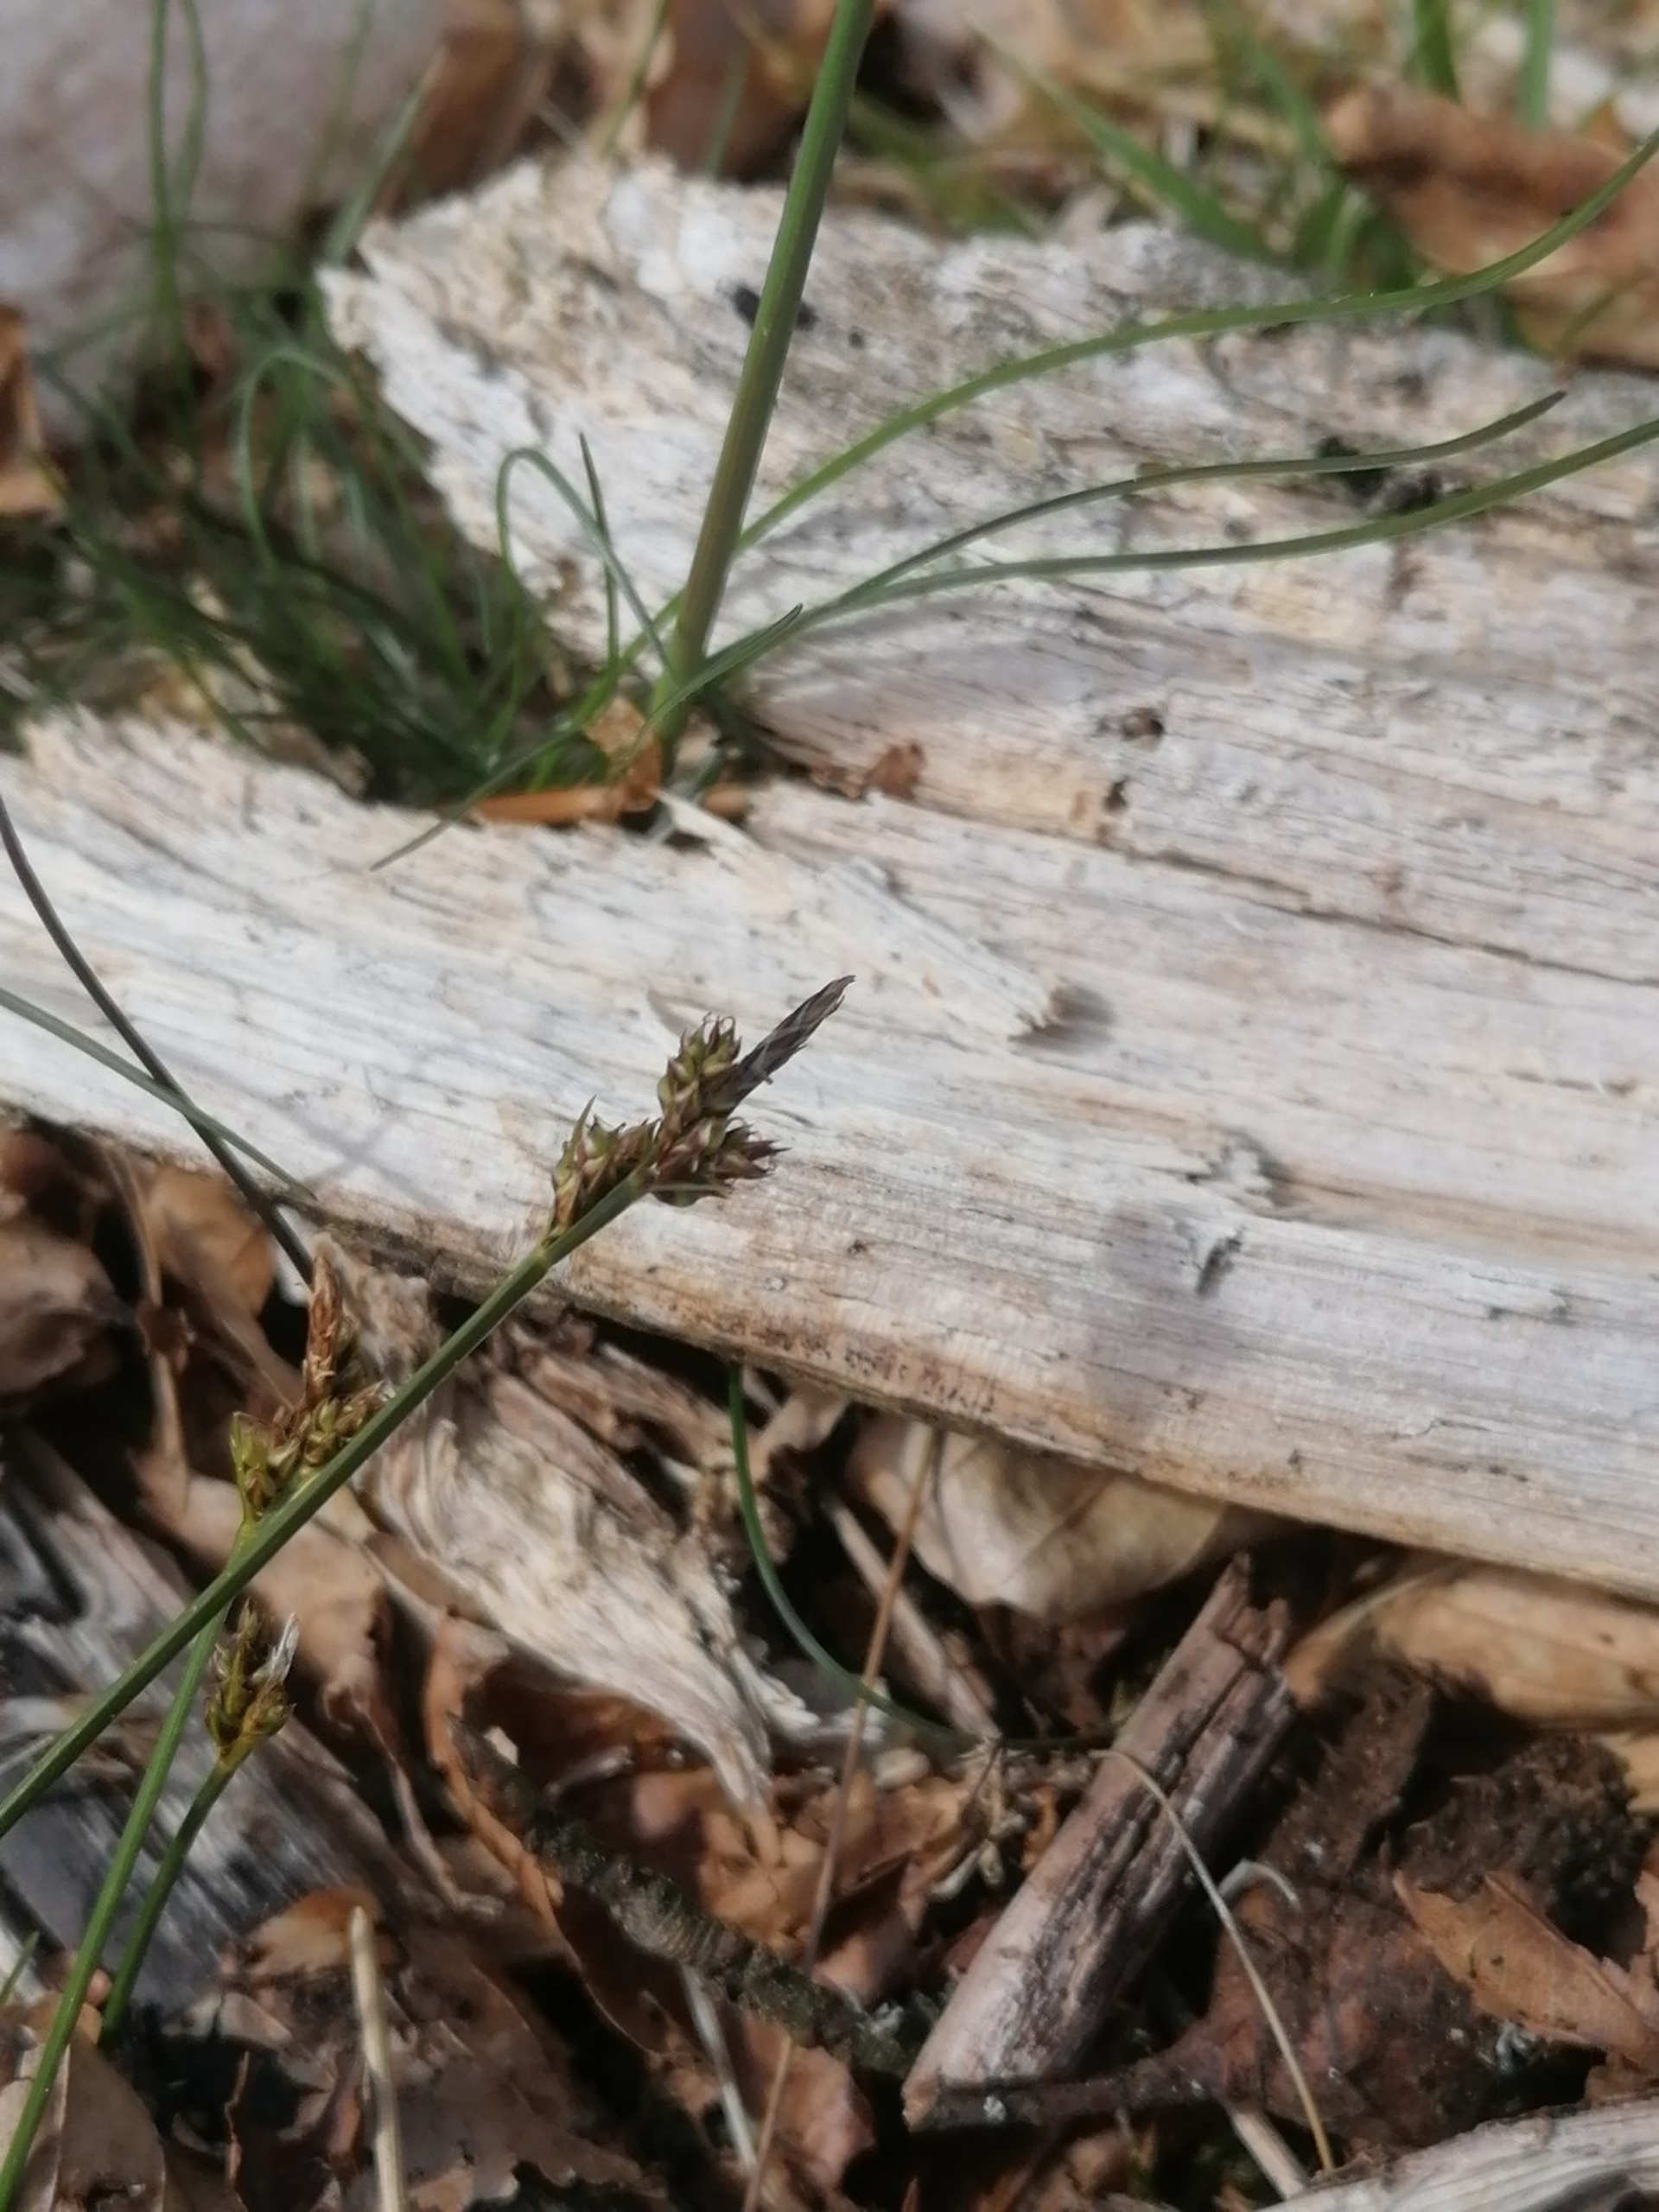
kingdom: Plantae
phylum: Tracheophyta
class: Liliopsida
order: Poales
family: Cyperaceae
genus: Carex
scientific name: Carex pilulifera
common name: Pille-star
